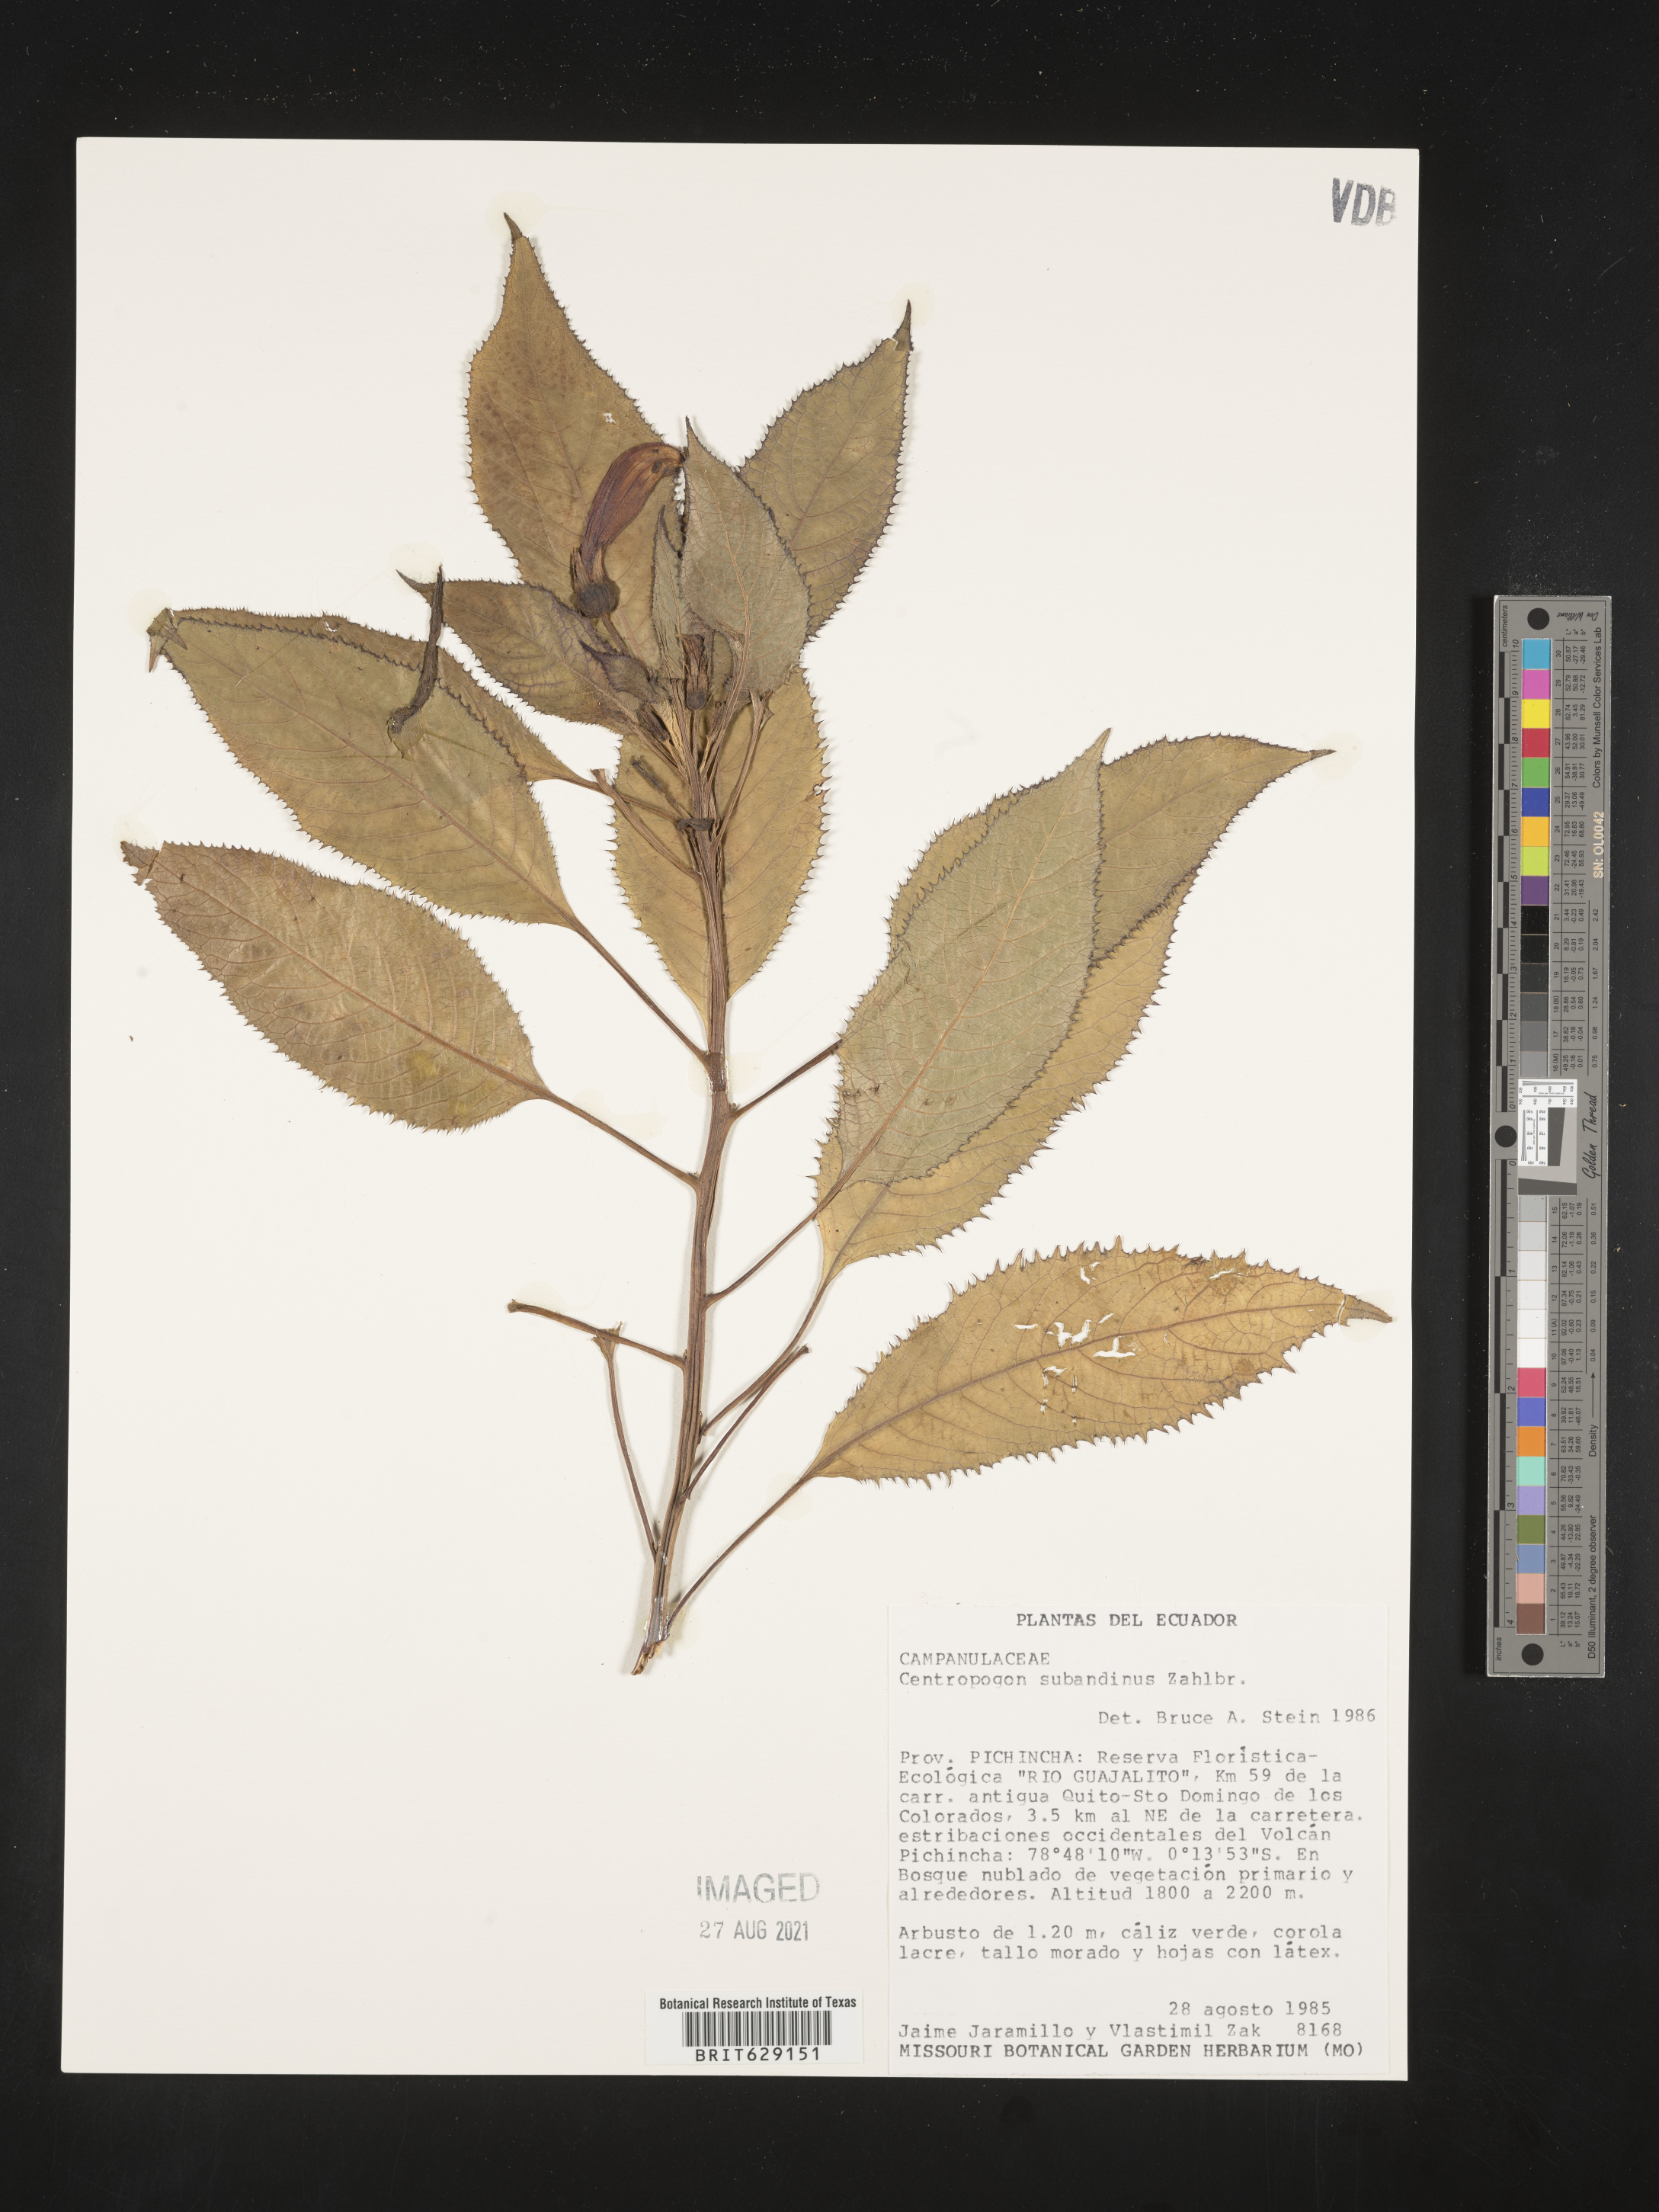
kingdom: Plantae
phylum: Tracheophyta
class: Magnoliopsida
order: Asterales
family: Campanulaceae
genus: Centropogon
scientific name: Centropogon subandinus
